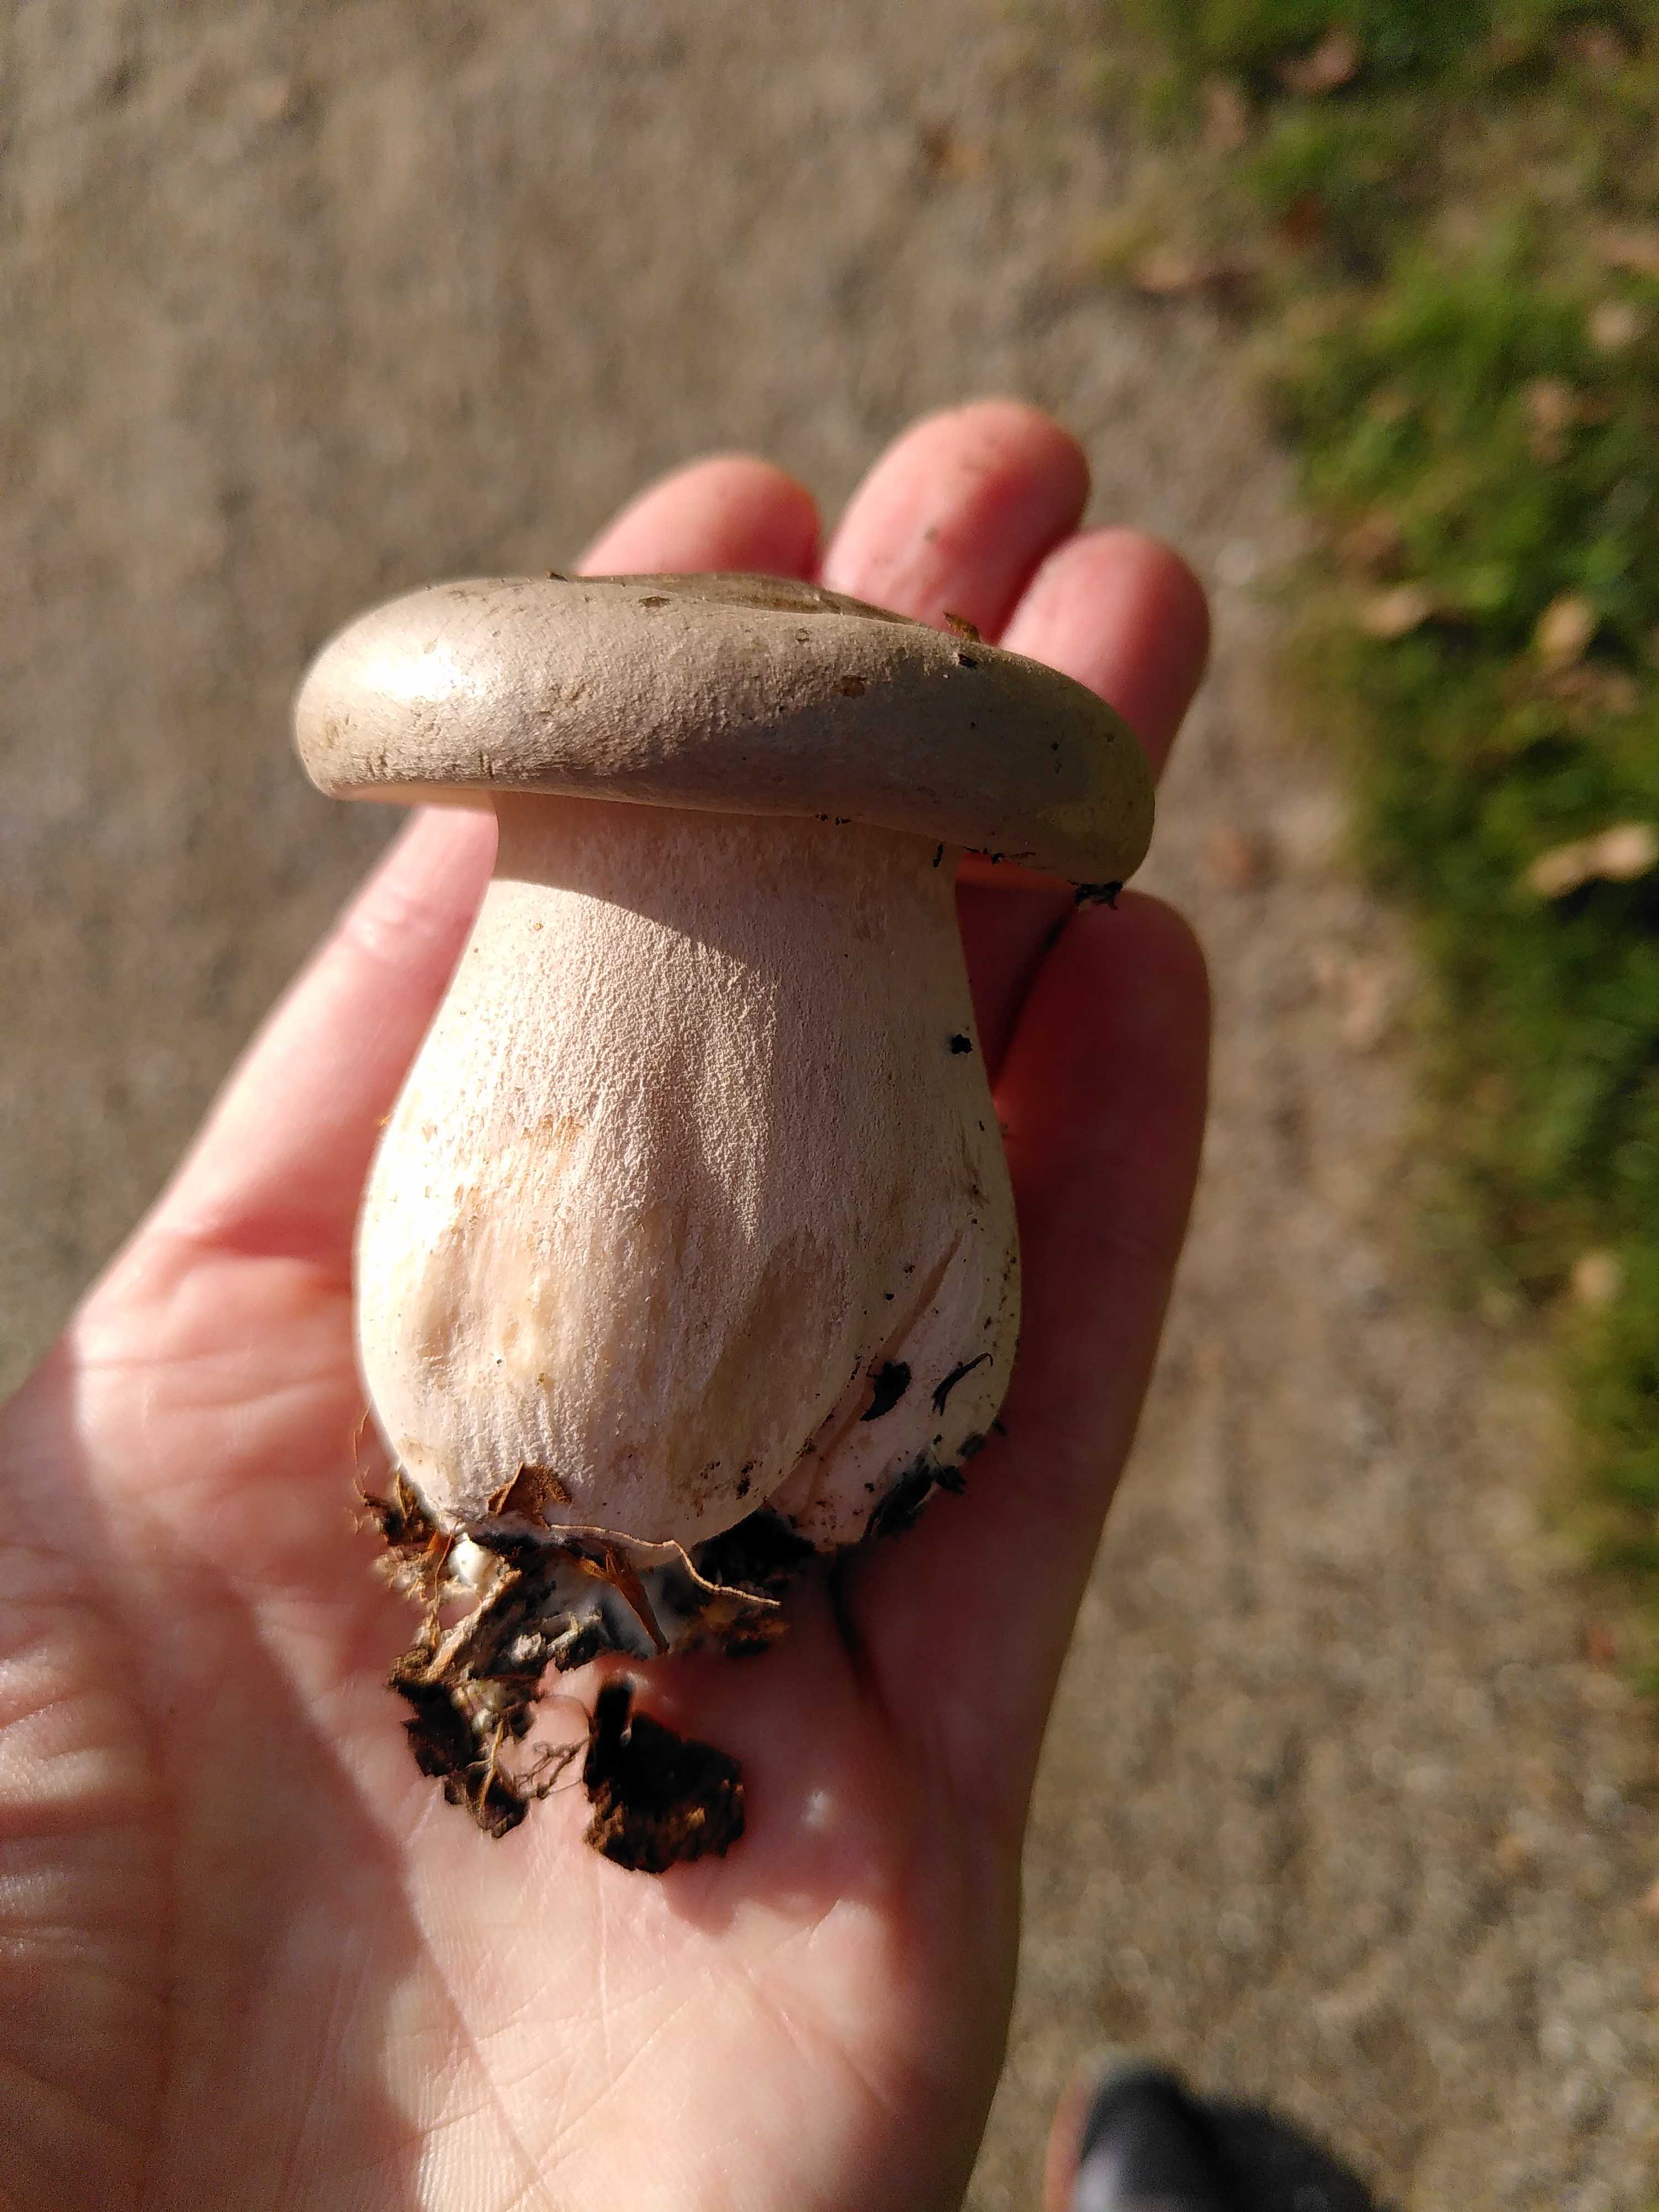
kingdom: Fungi
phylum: Basidiomycota
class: Agaricomycetes
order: Agaricales
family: Tricholomataceae
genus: Clitocybe
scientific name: Clitocybe nebularis
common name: tåge-tragthat
